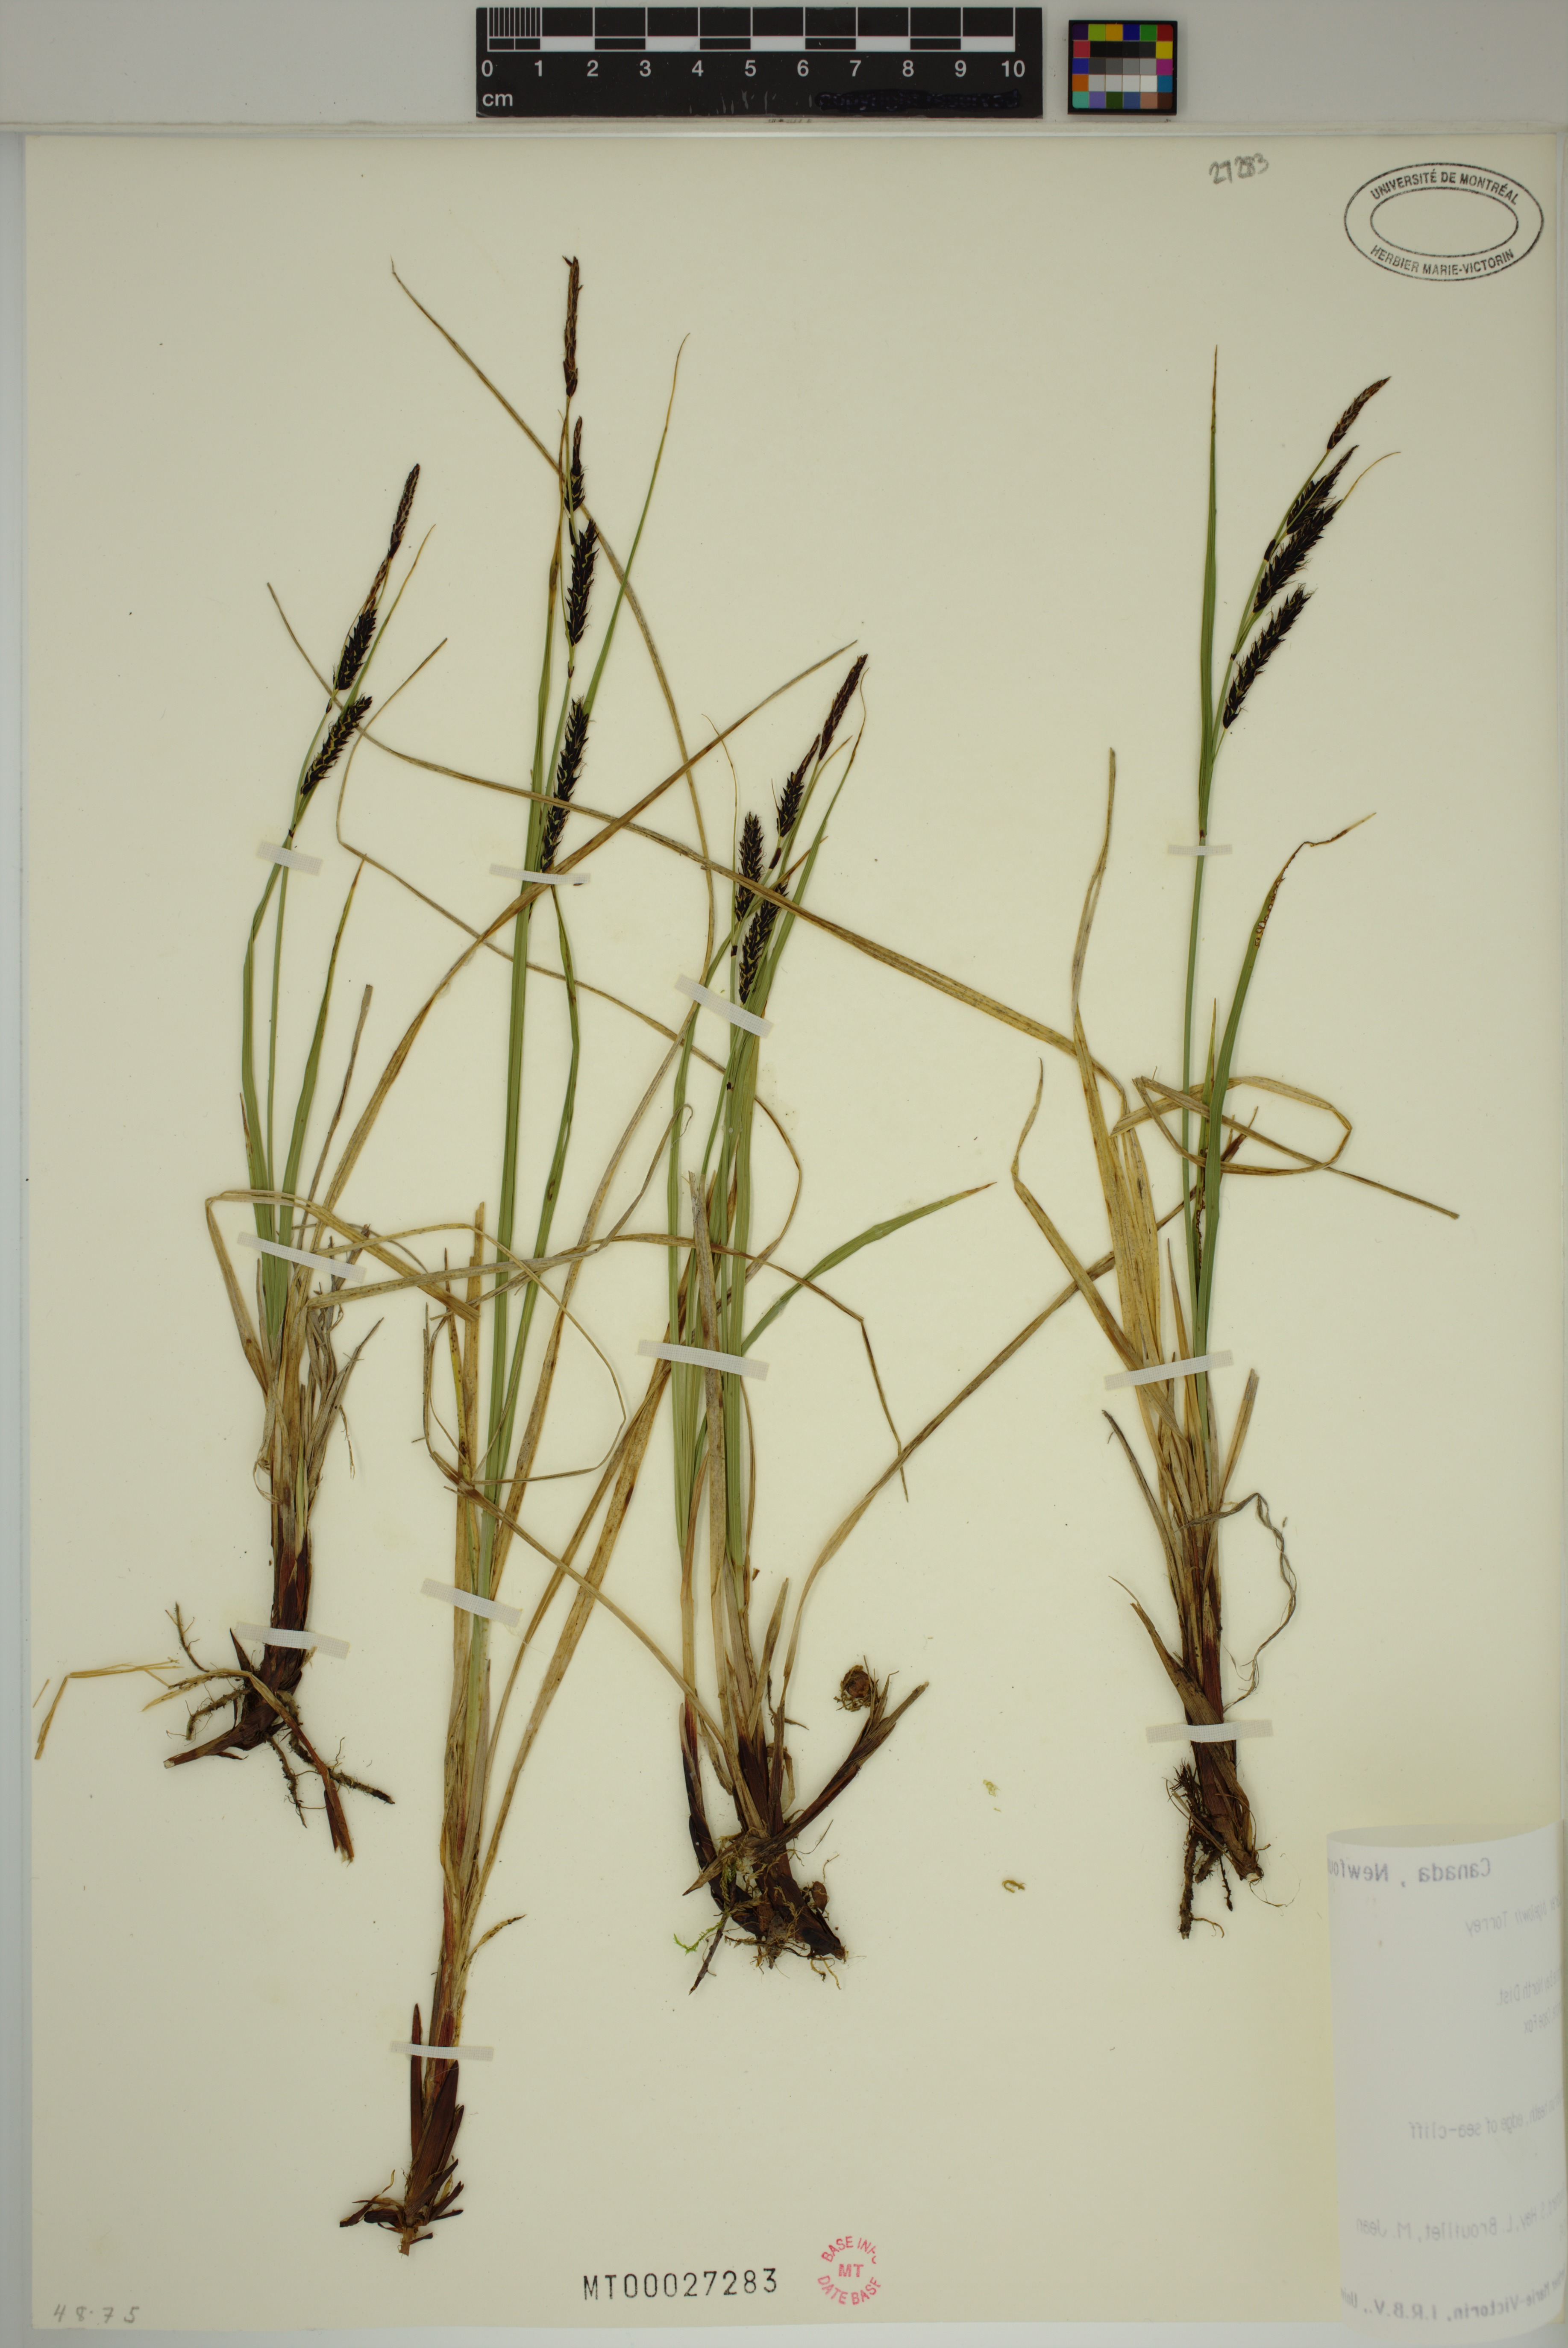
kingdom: Plantae
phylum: Tracheophyta
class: Liliopsida
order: Poales
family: Cyperaceae
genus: Carex
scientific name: Carex bigelowii
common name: Stiff sedge
